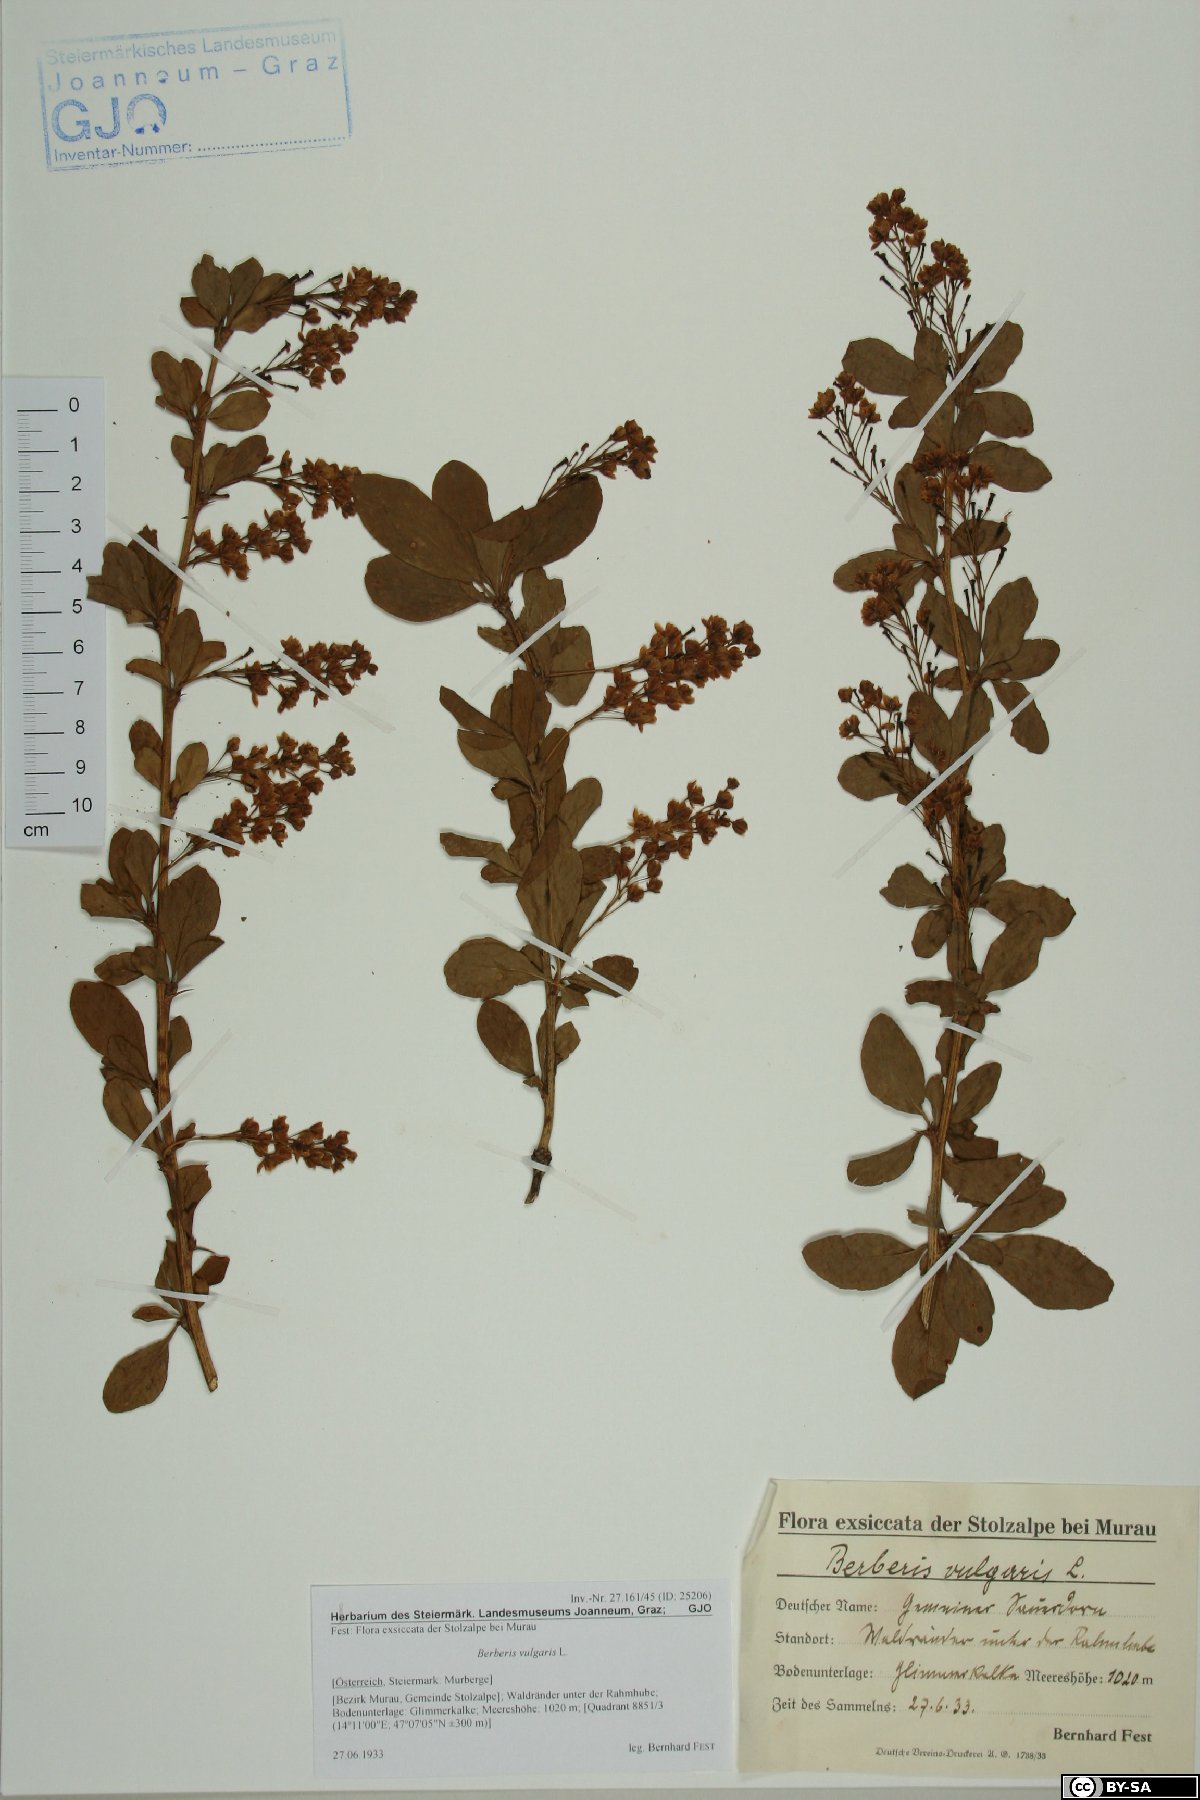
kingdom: Plantae
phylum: Tracheophyta
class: Magnoliopsida
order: Ranunculales
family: Berberidaceae
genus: Berberis
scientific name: Berberis vulgaris
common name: Barberry
